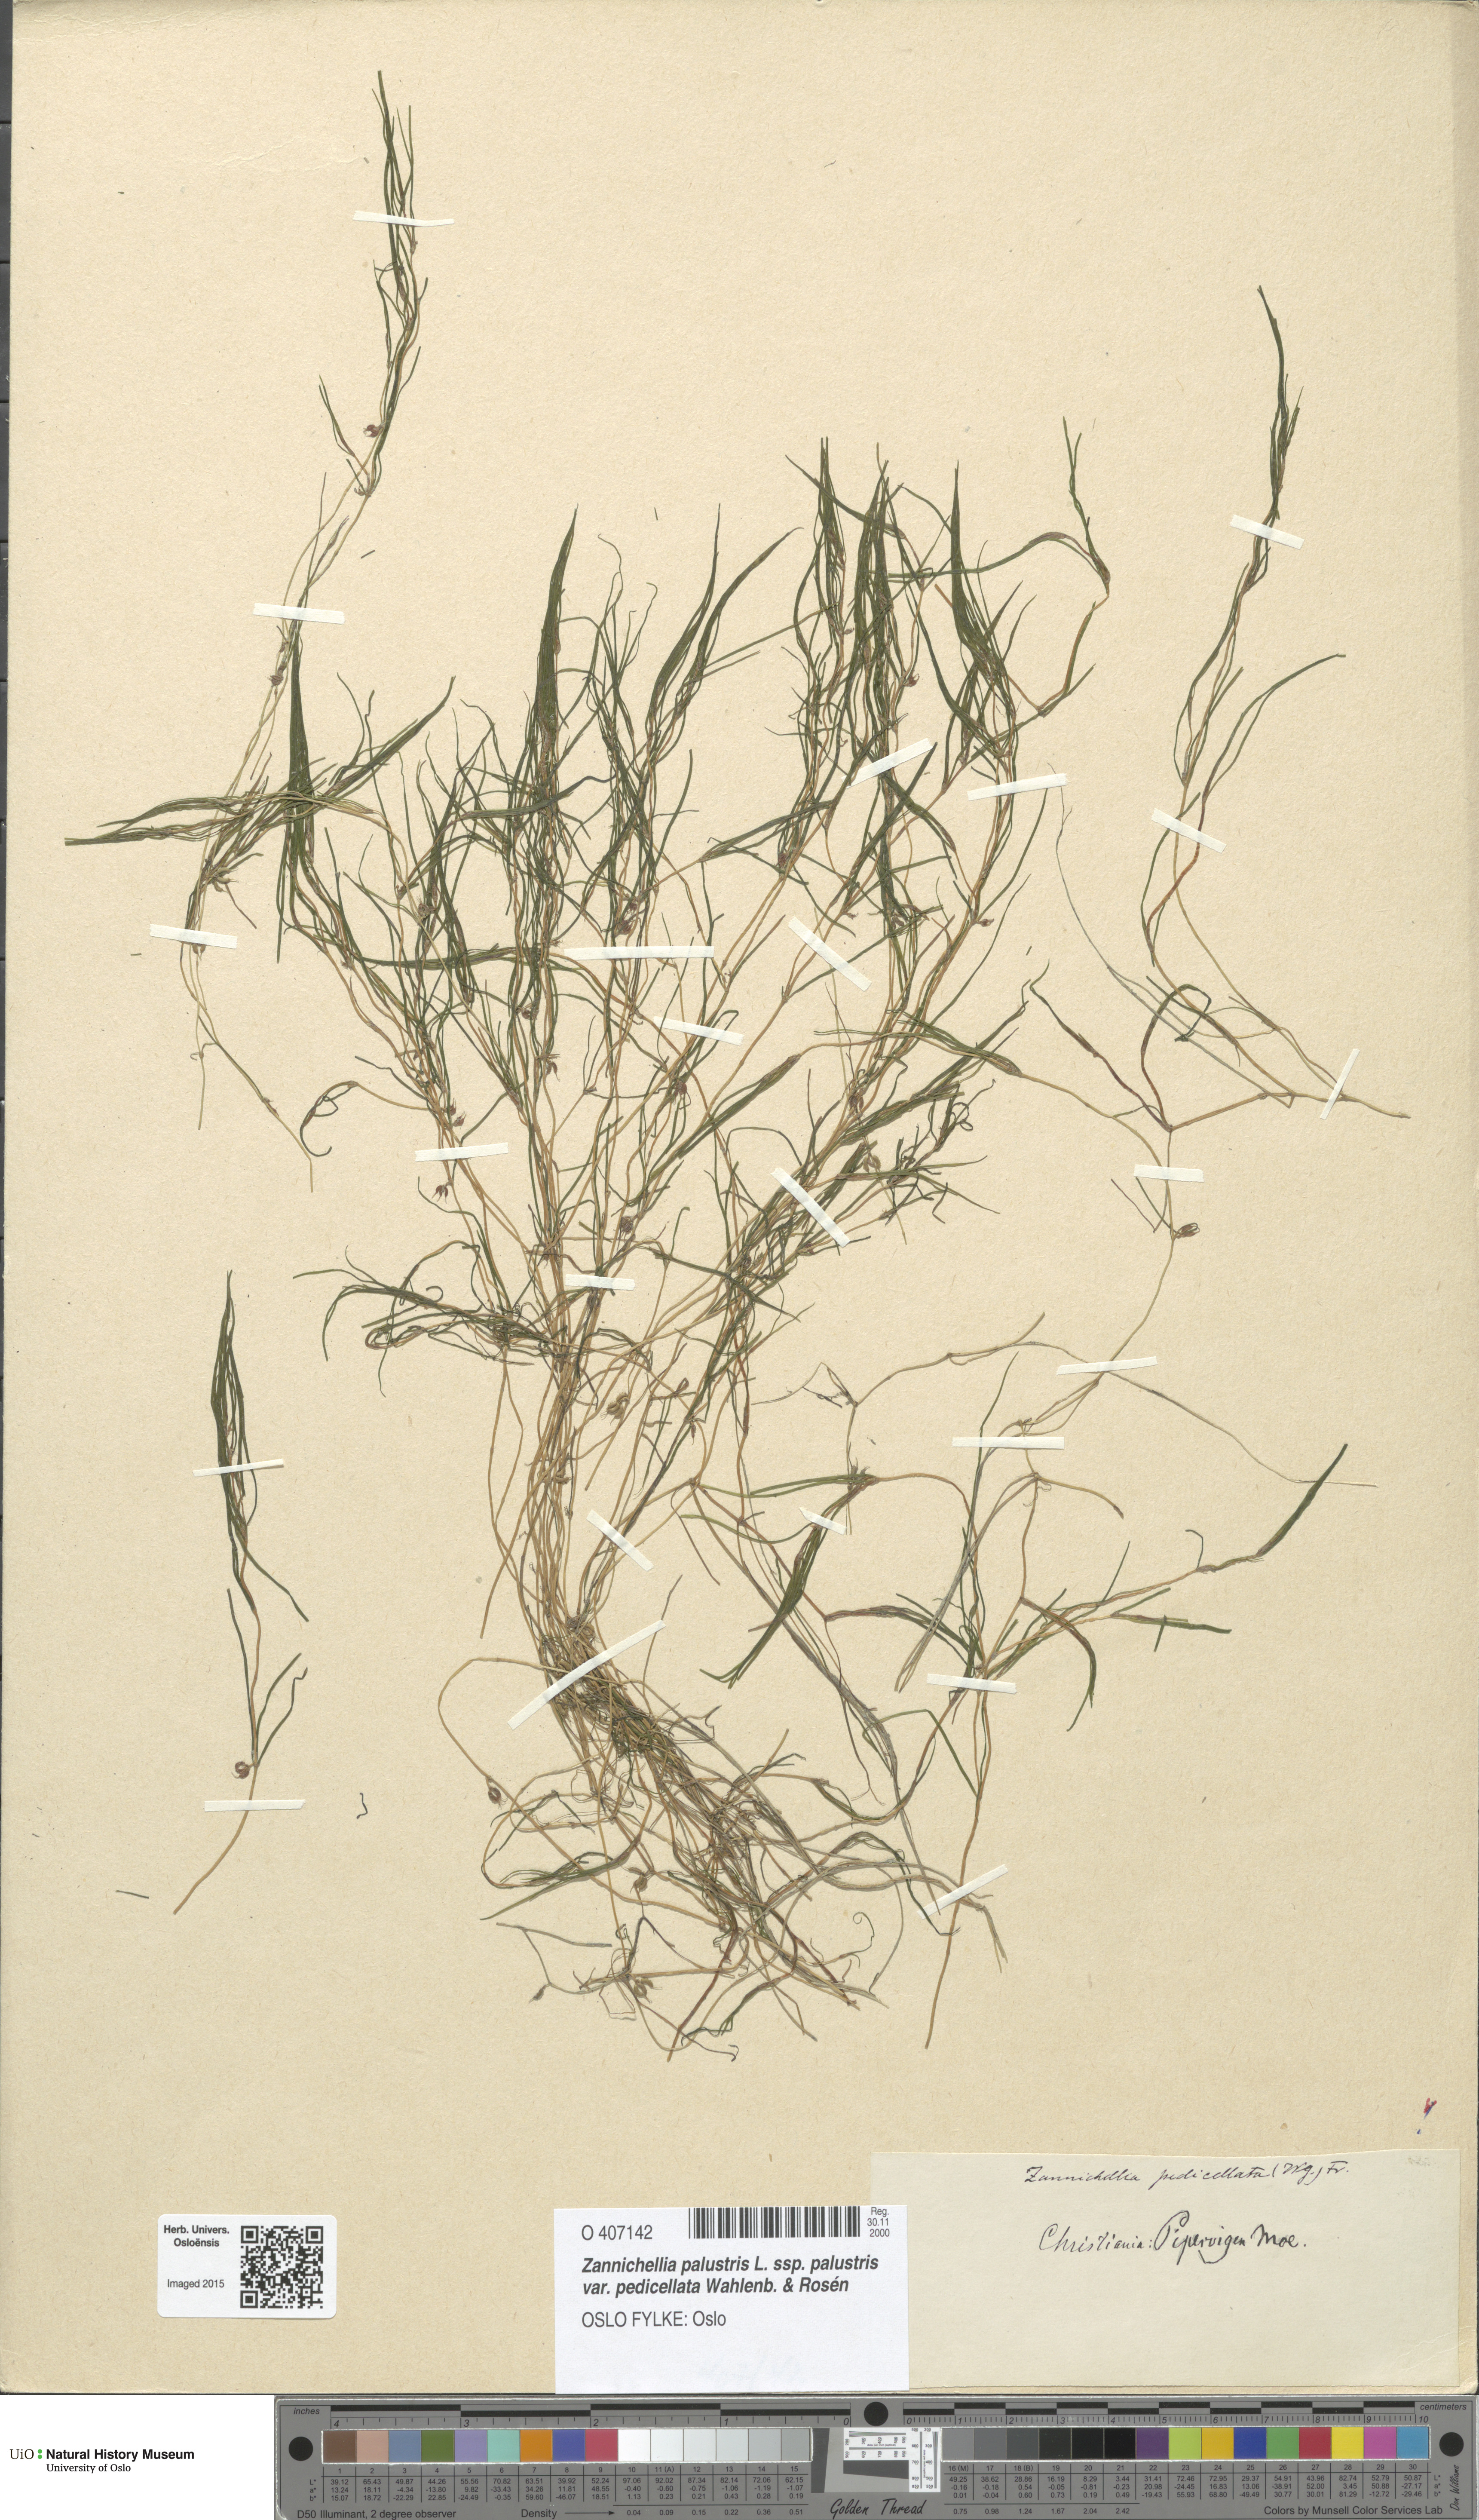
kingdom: Plantae
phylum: Tracheophyta
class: Liliopsida
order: Alismatales
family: Potamogetonaceae
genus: Zannichellia
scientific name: Zannichellia palustris
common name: Horned pondweed
